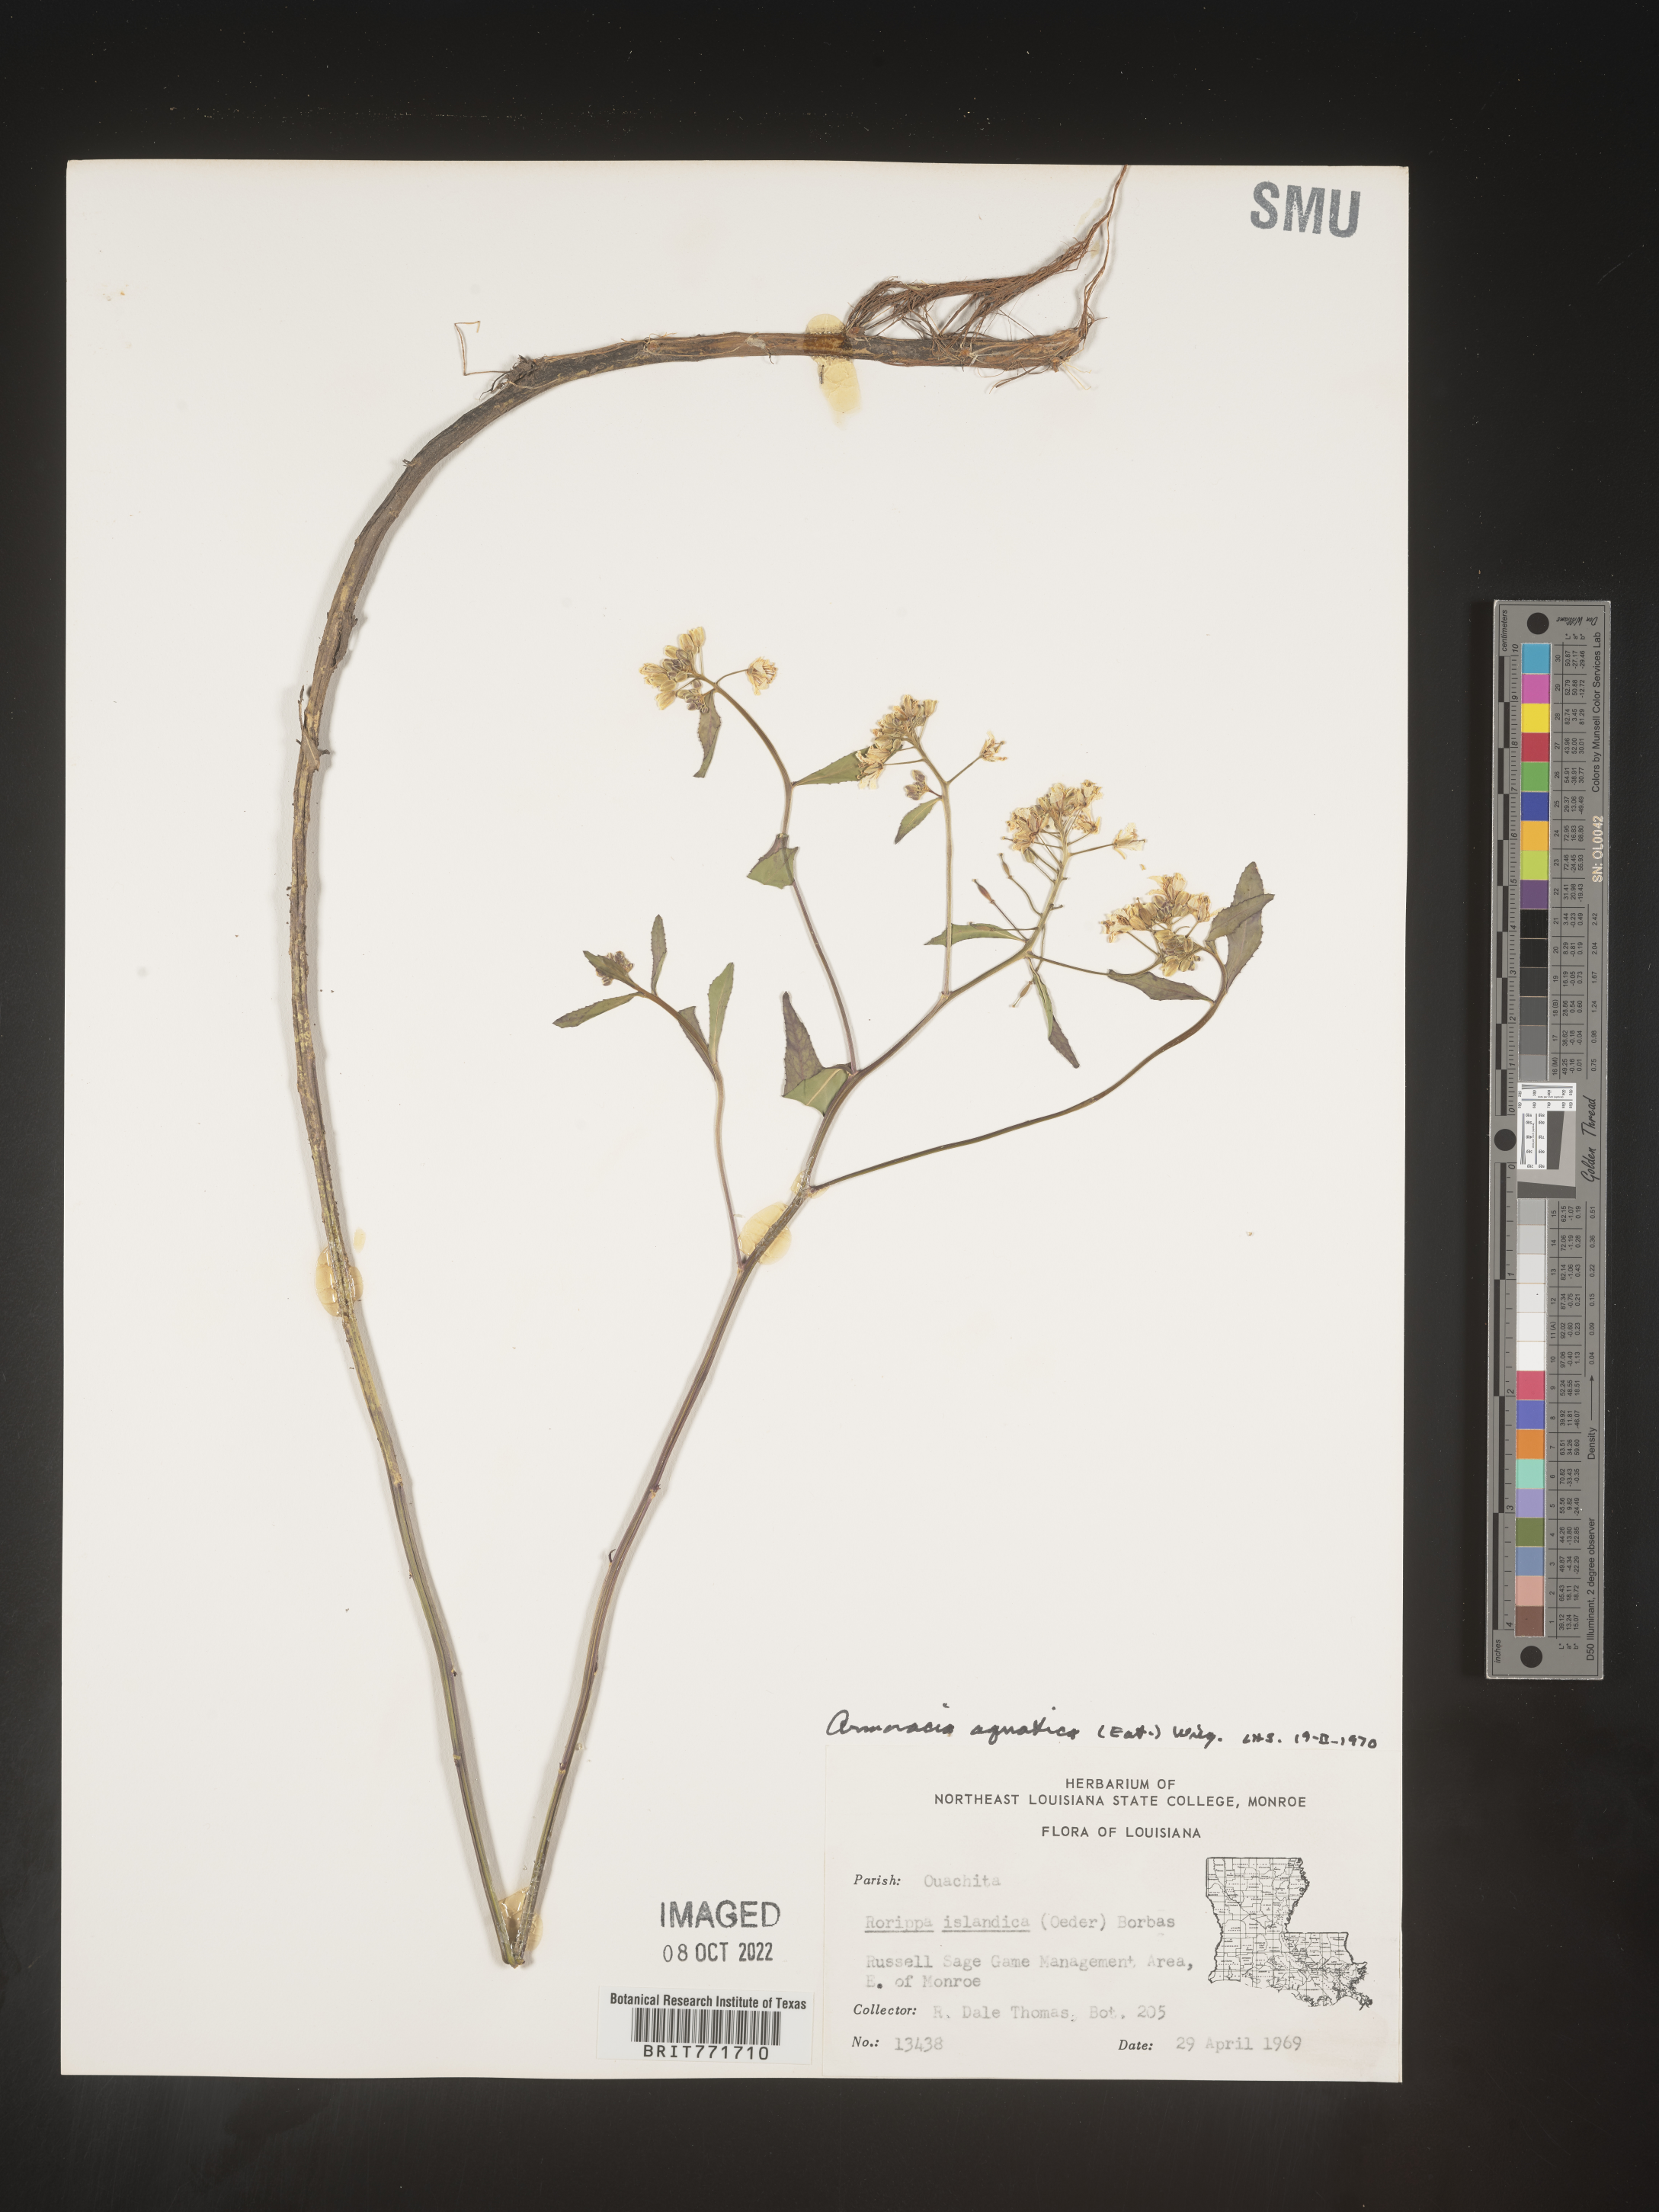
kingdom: Plantae
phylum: Tracheophyta
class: Magnoliopsida
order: Brassicales
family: Brassicaceae
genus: Armoracia
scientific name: Armoracia
